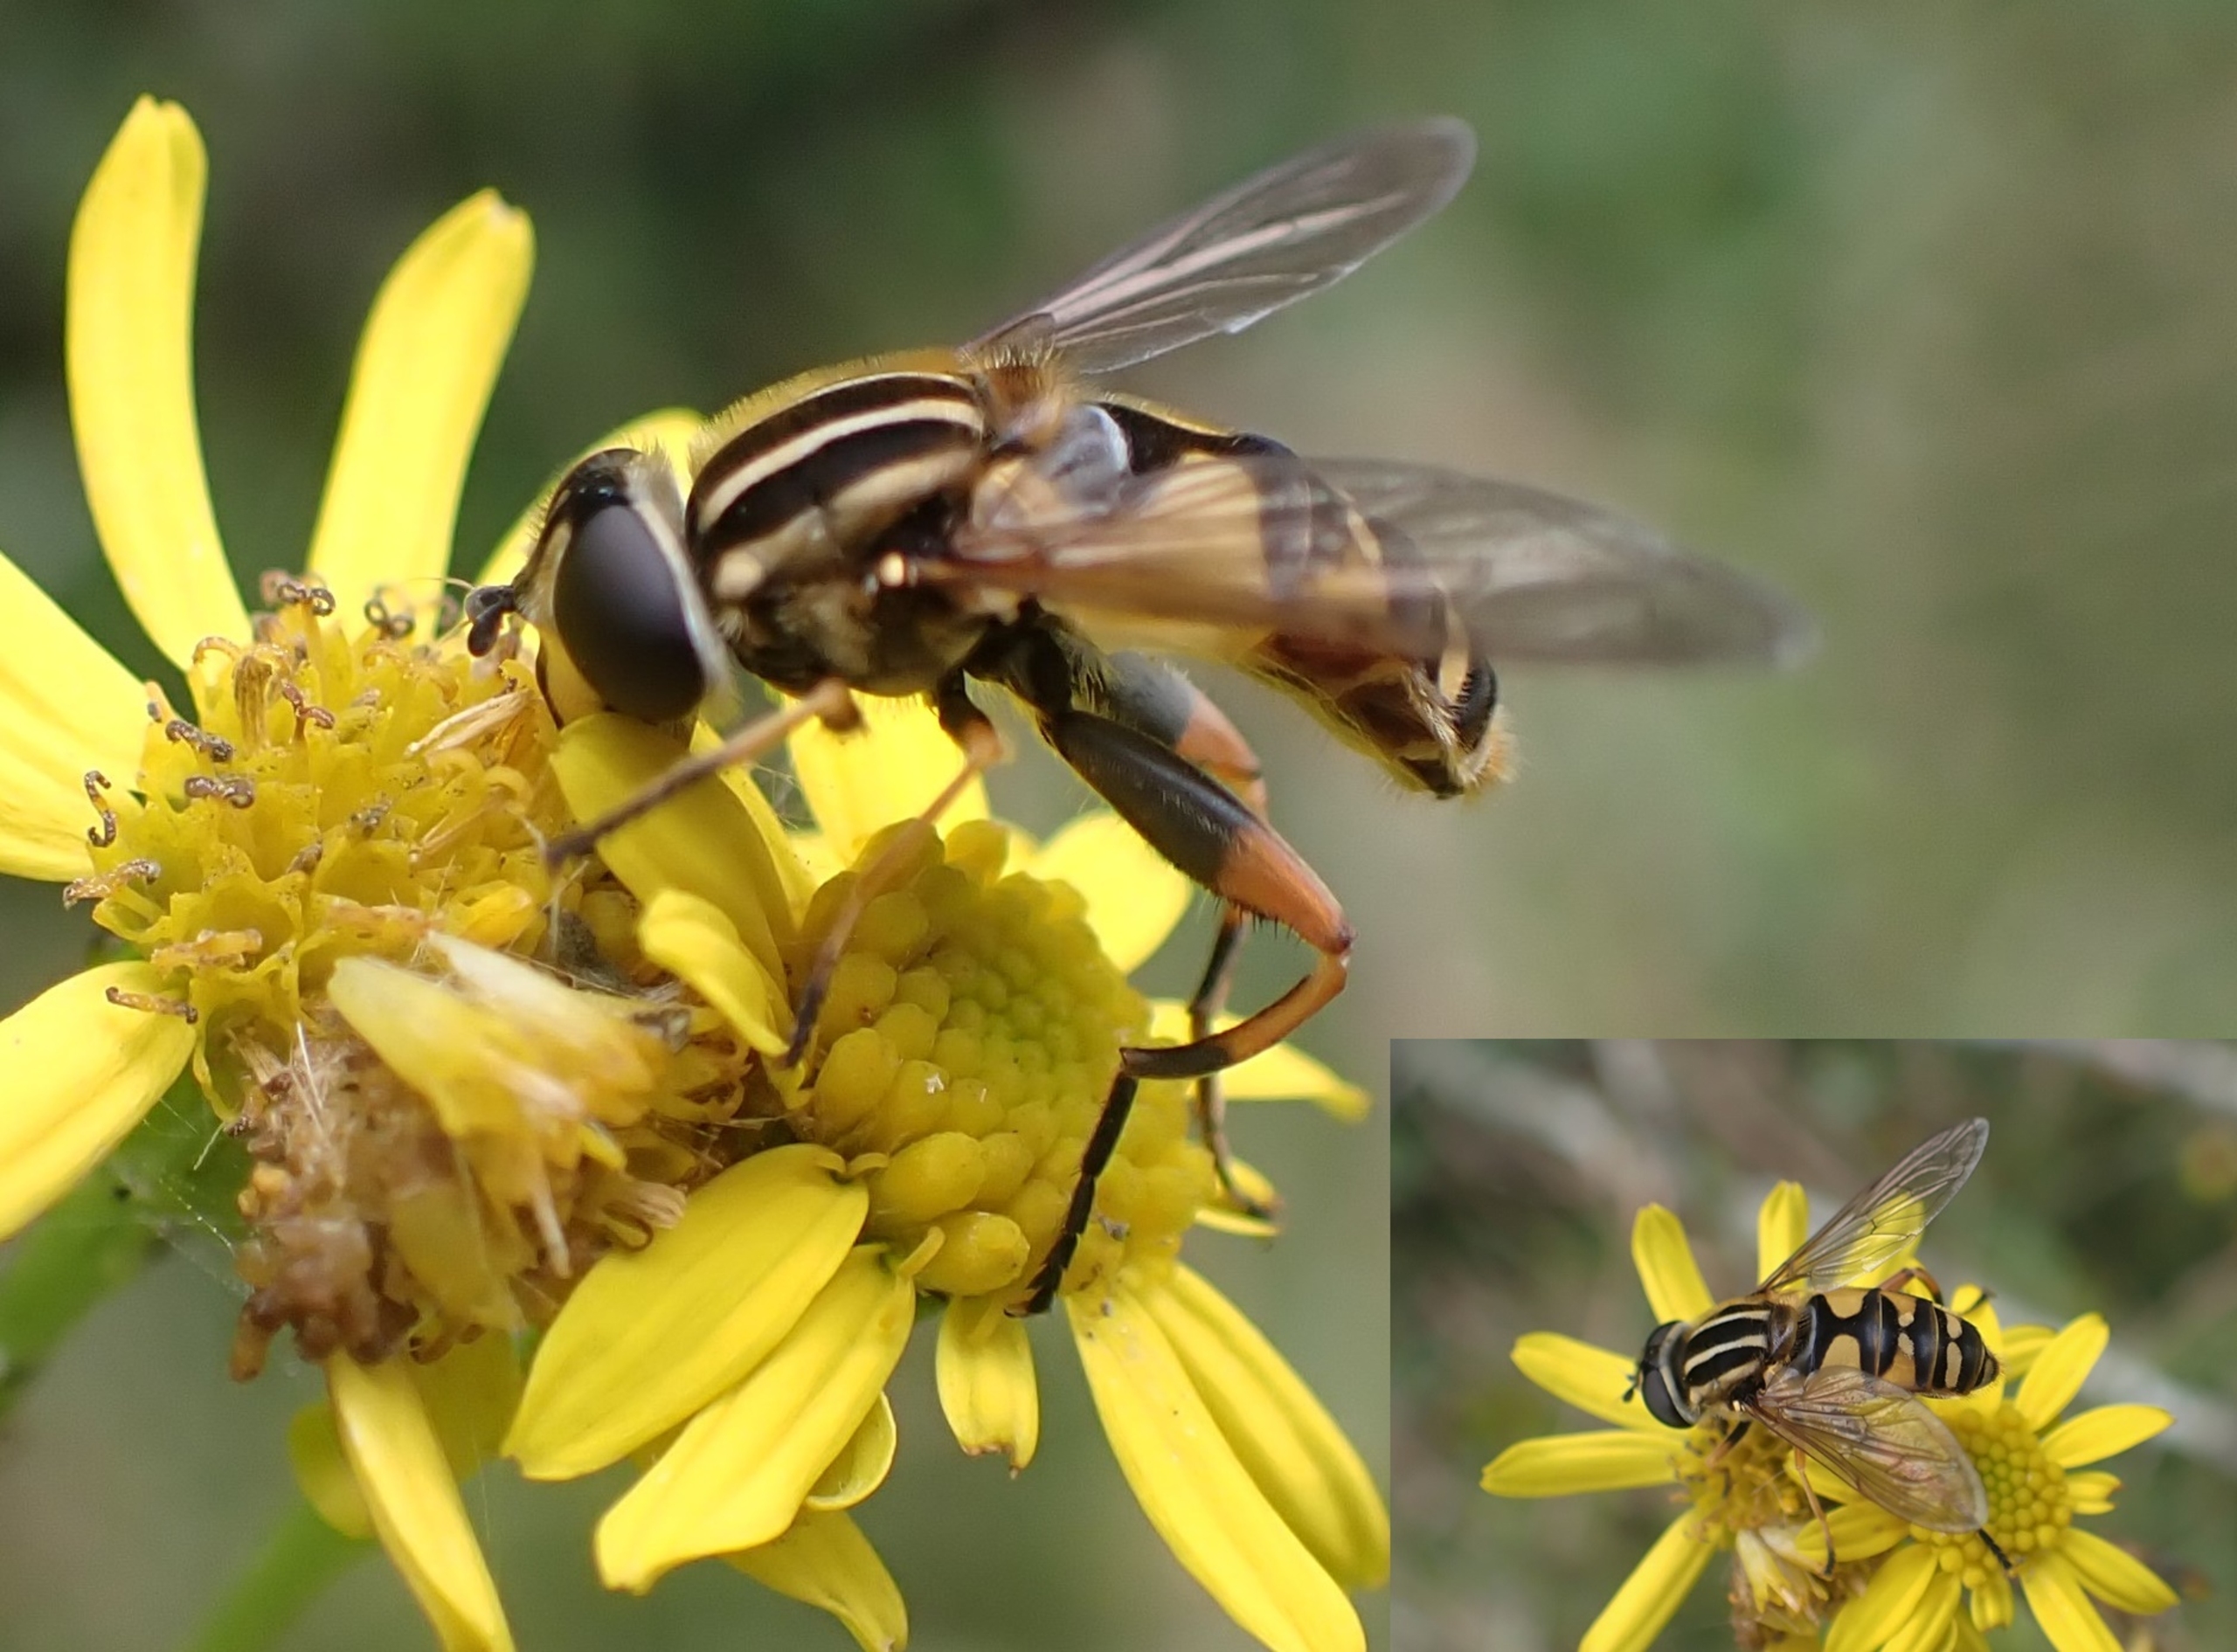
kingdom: Animalia
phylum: Arthropoda
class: Insecta
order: Diptera
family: Syrphidae
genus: Helophilus
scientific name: Helophilus pendulus
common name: Almindelig sumpsvirreflue
